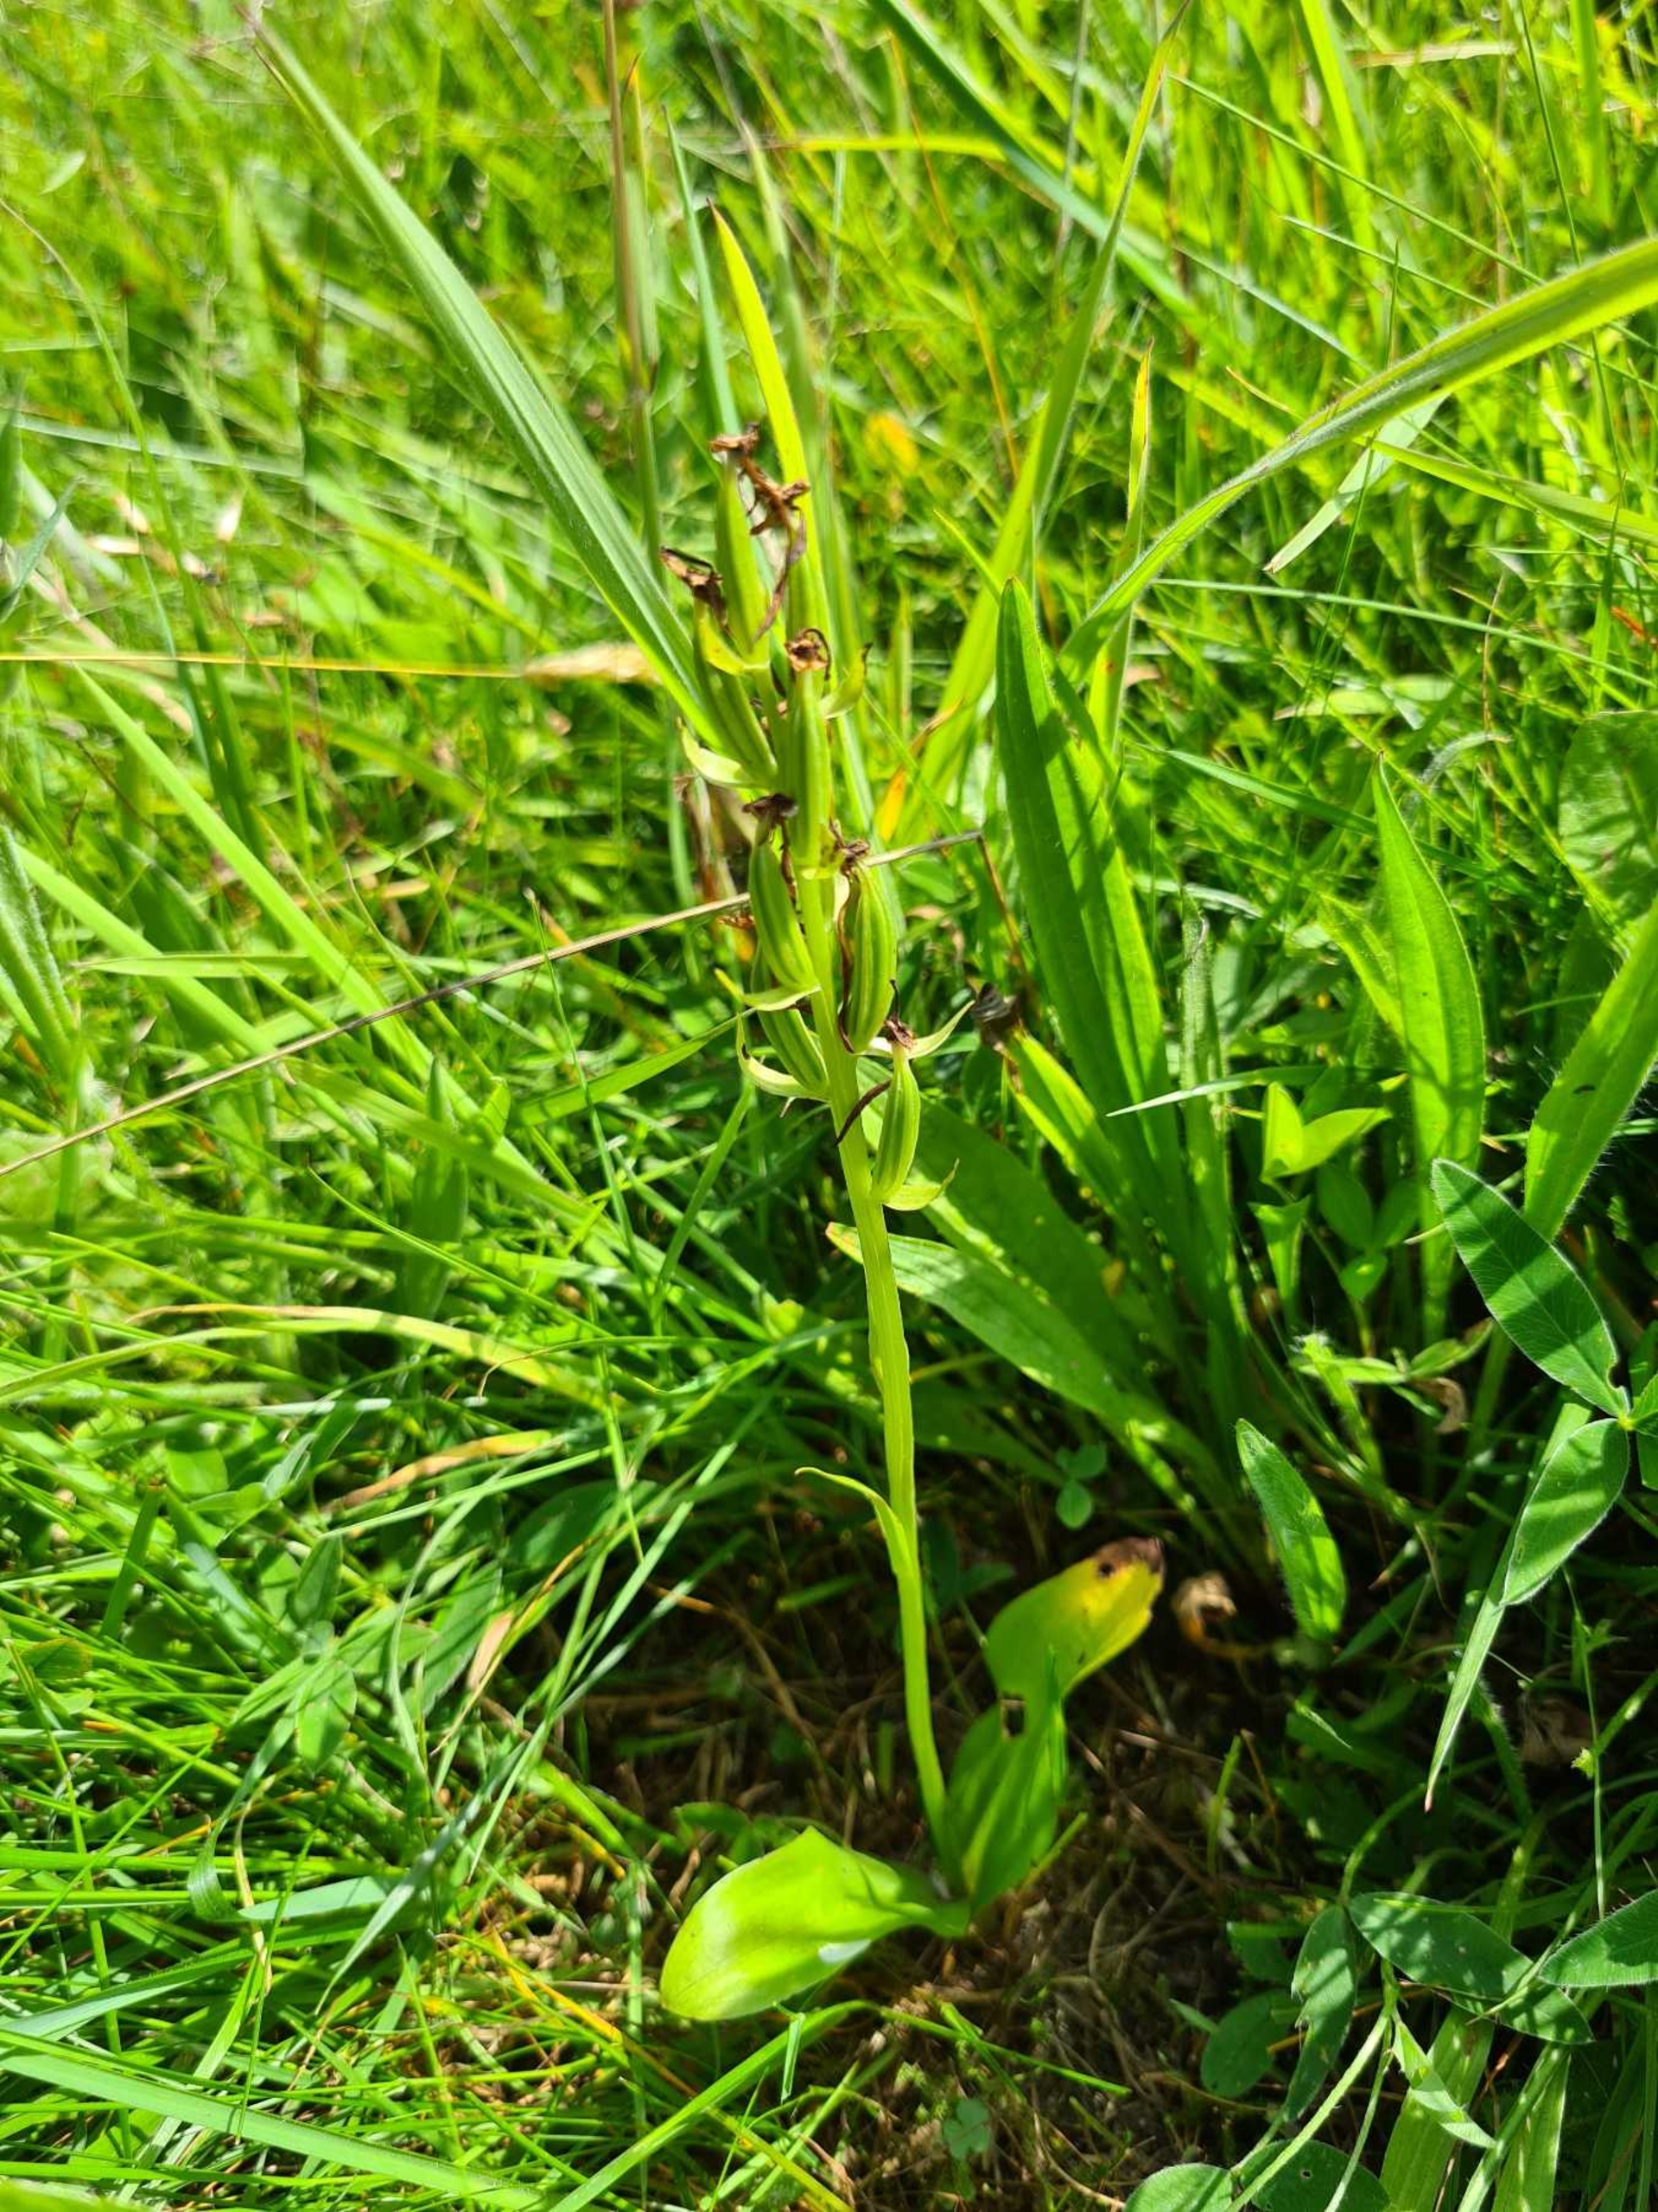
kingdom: Plantae
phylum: Tracheophyta
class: Liliopsida
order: Asparagales
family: Orchidaceae
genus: Platanthera
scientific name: Platanthera
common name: Gøgeliljeslægten
